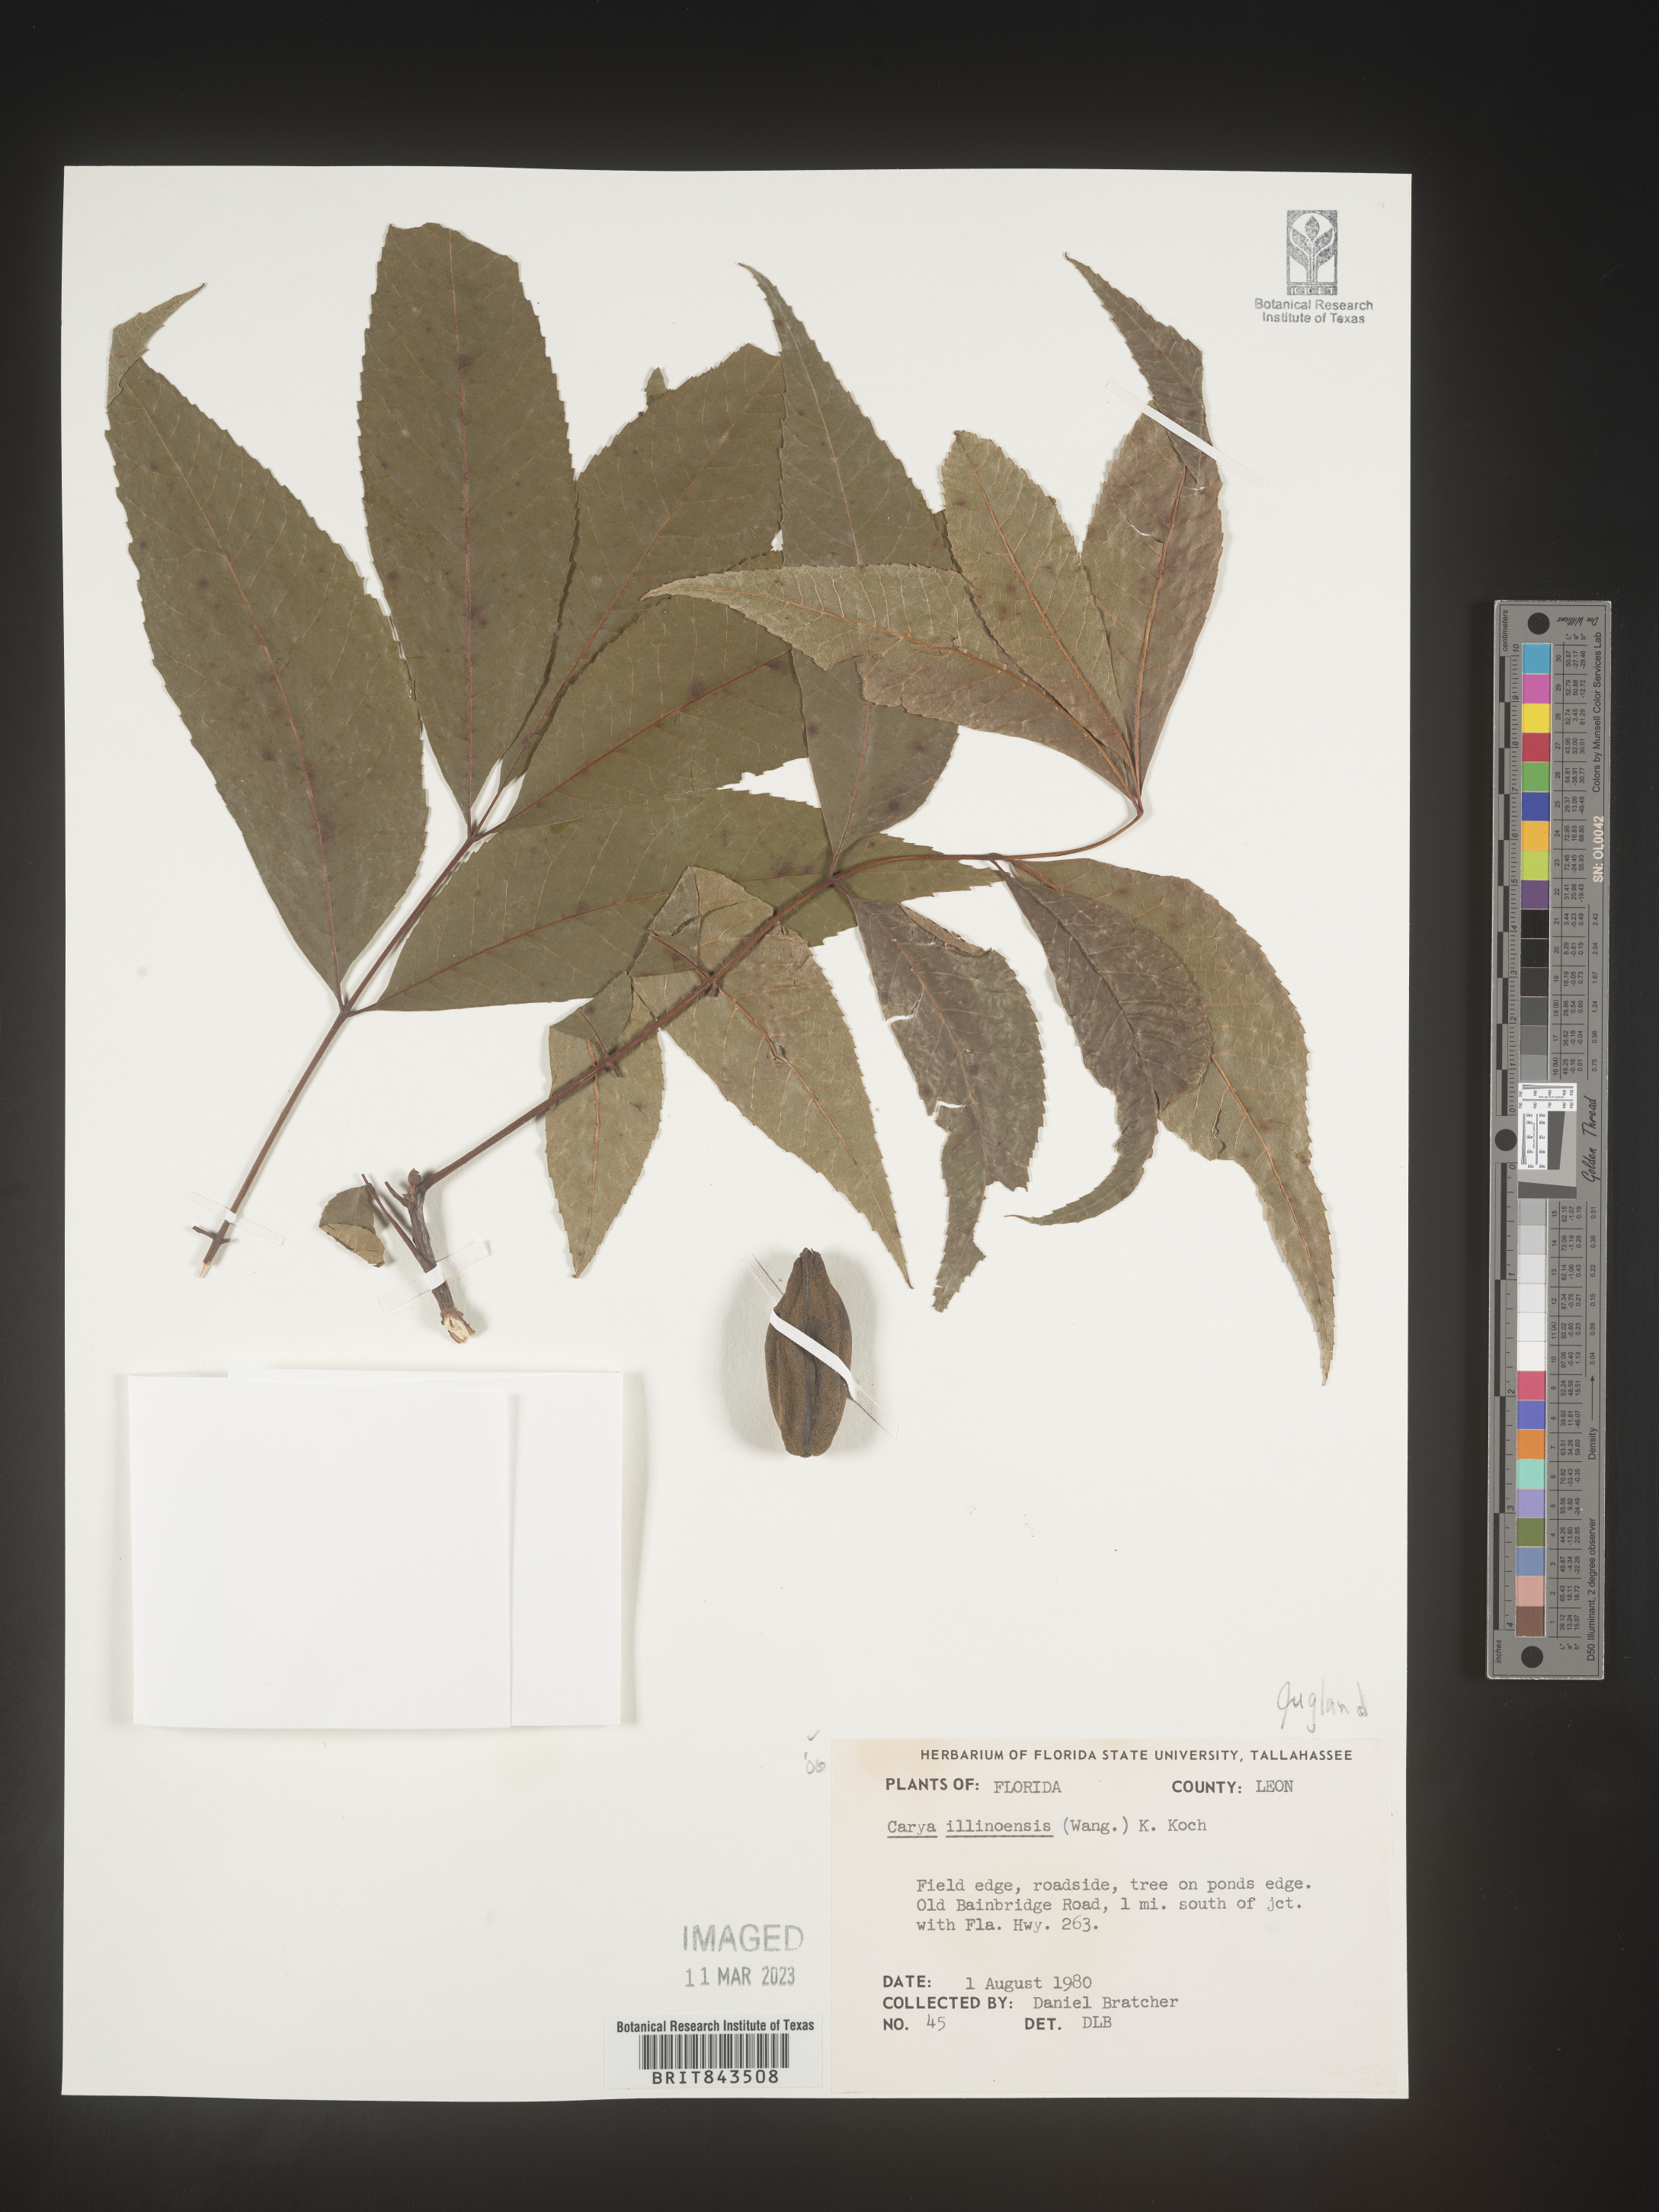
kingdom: Plantae
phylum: Tracheophyta
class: Magnoliopsida
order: Fagales
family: Juglandaceae
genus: Carya
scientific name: Carya illinoinensis
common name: Pecan
